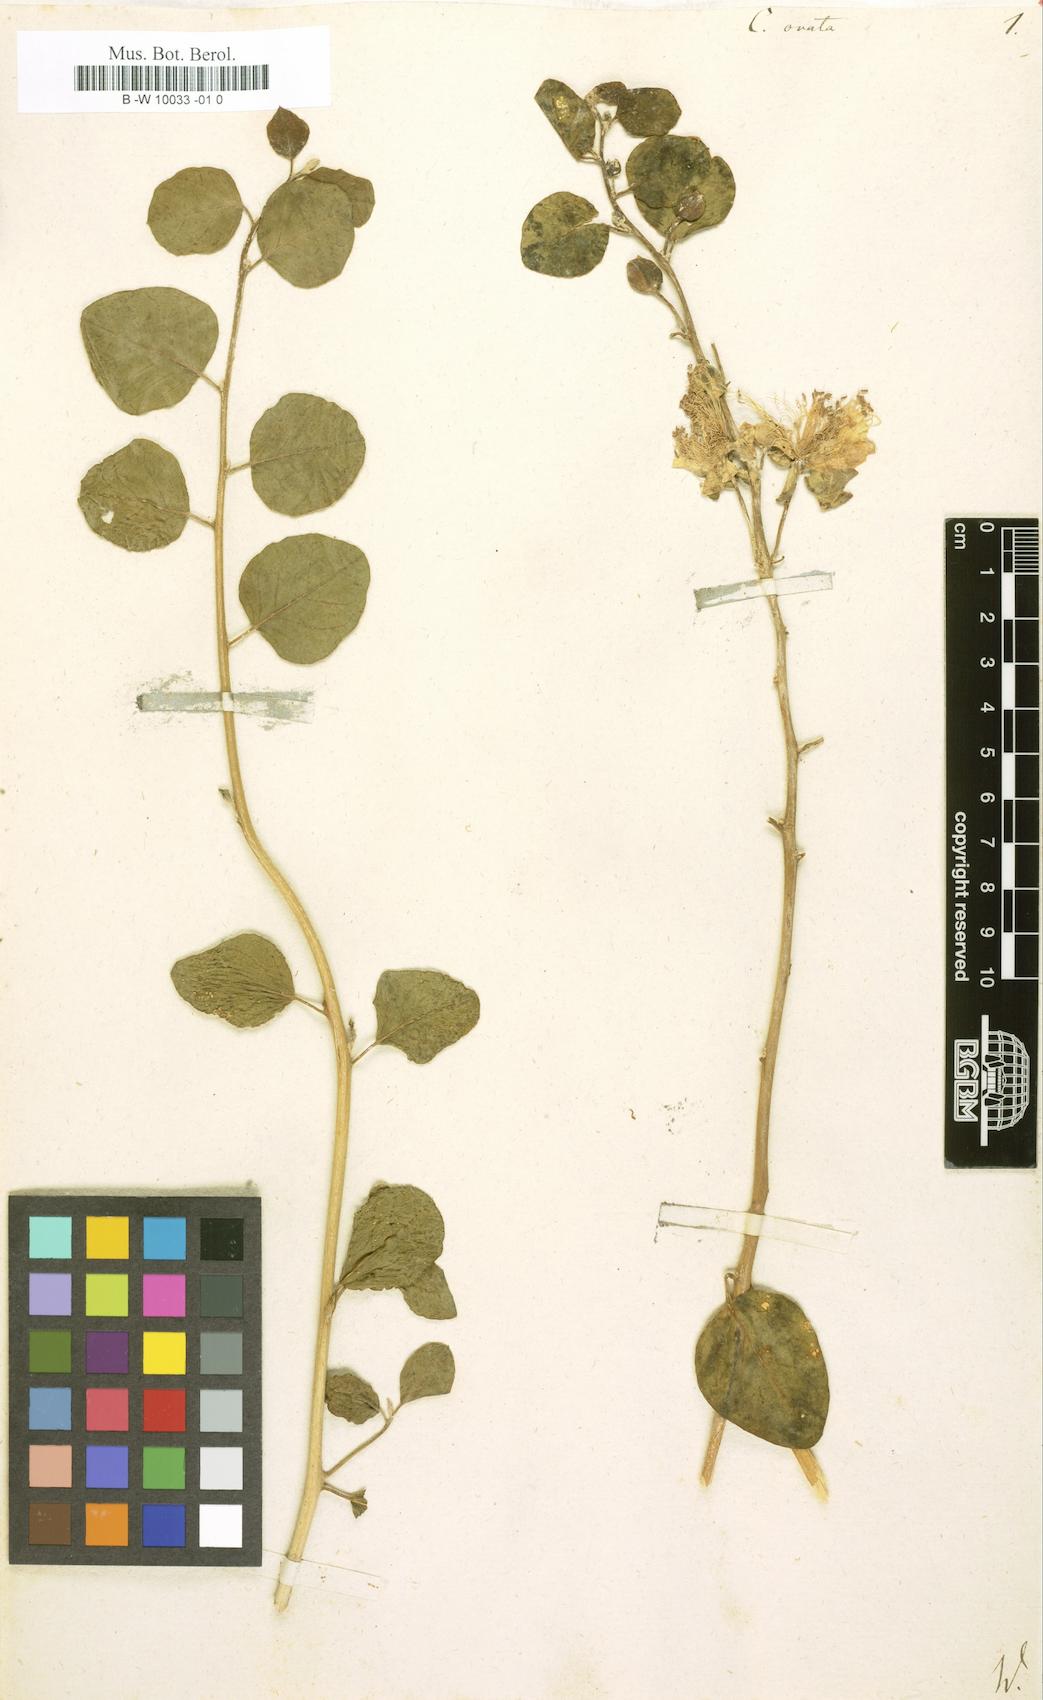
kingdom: Plantae
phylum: Tracheophyta
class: Magnoliopsida
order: Brassicales
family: Capparaceae
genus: Capparis
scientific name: Capparis spinosa
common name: Caper
